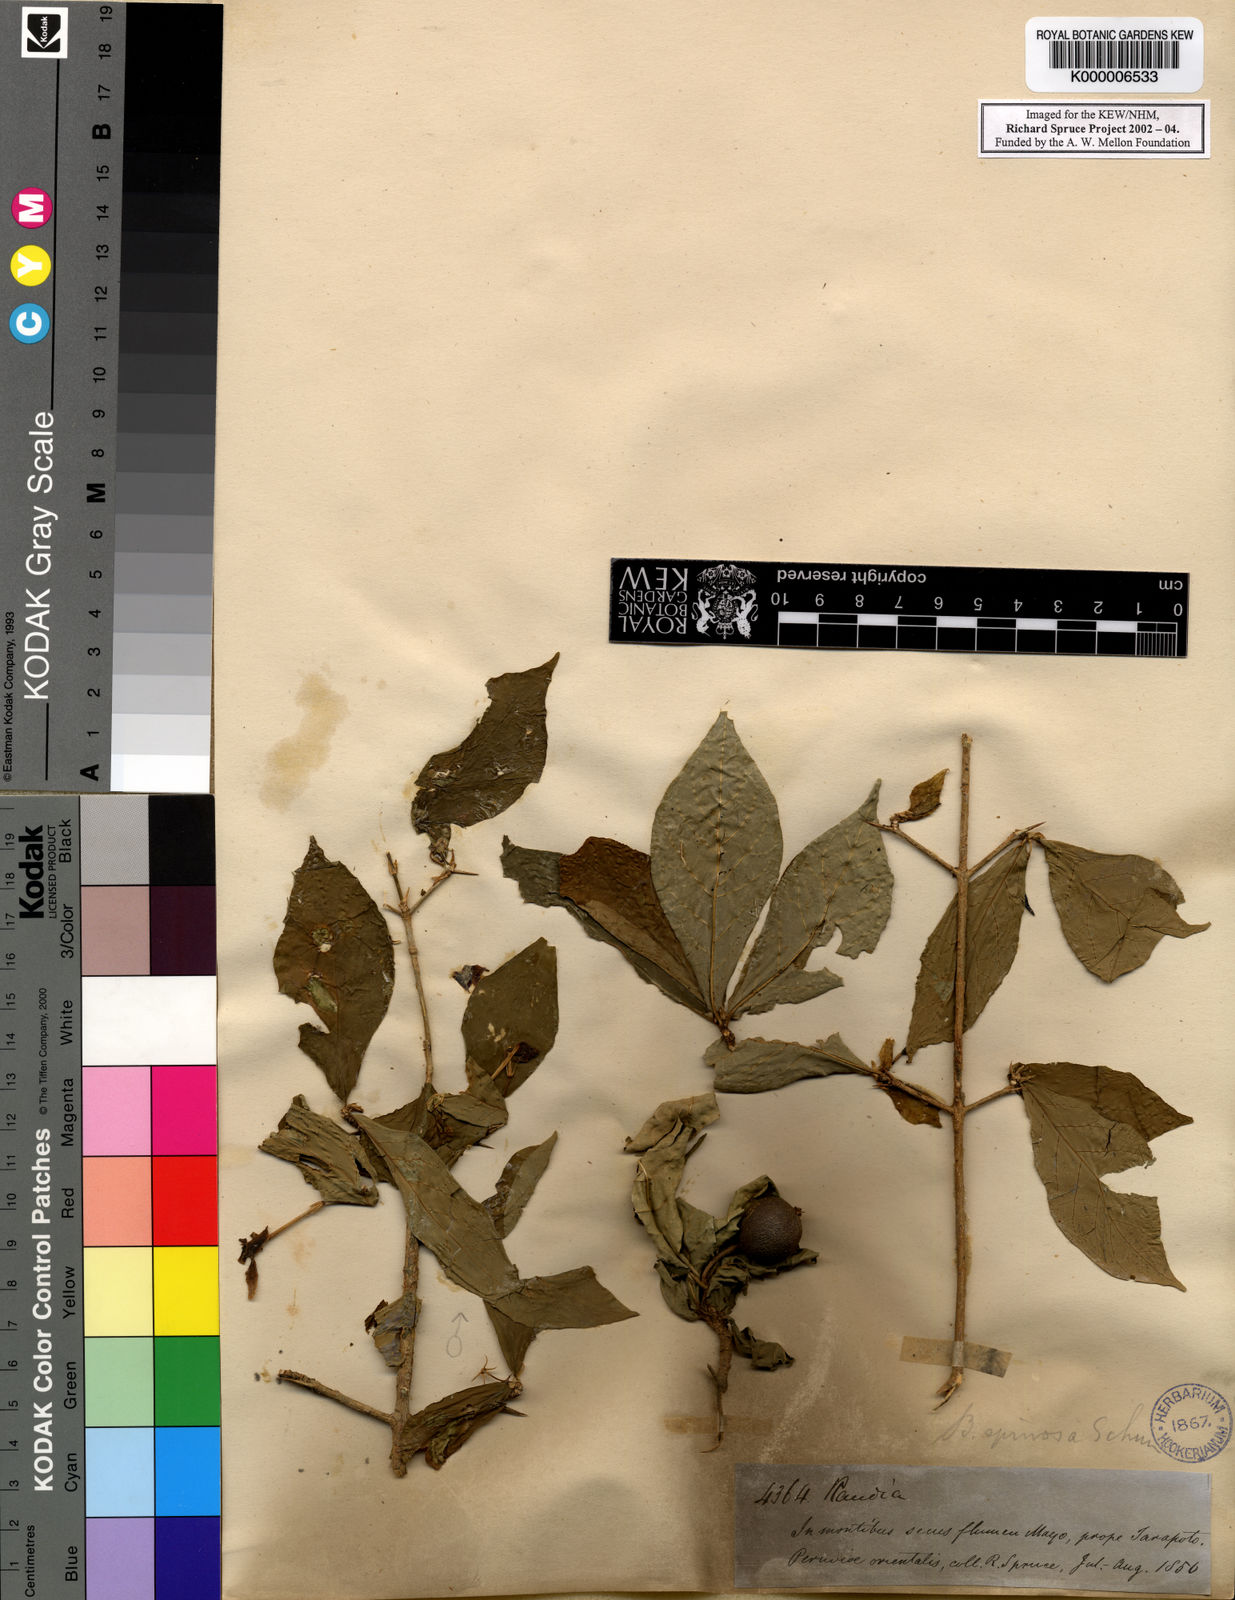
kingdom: Plantae
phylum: Tracheophyta
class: Magnoliopsida
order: Gentianales
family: Rubiaceae
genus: Randia
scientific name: Randia armata
